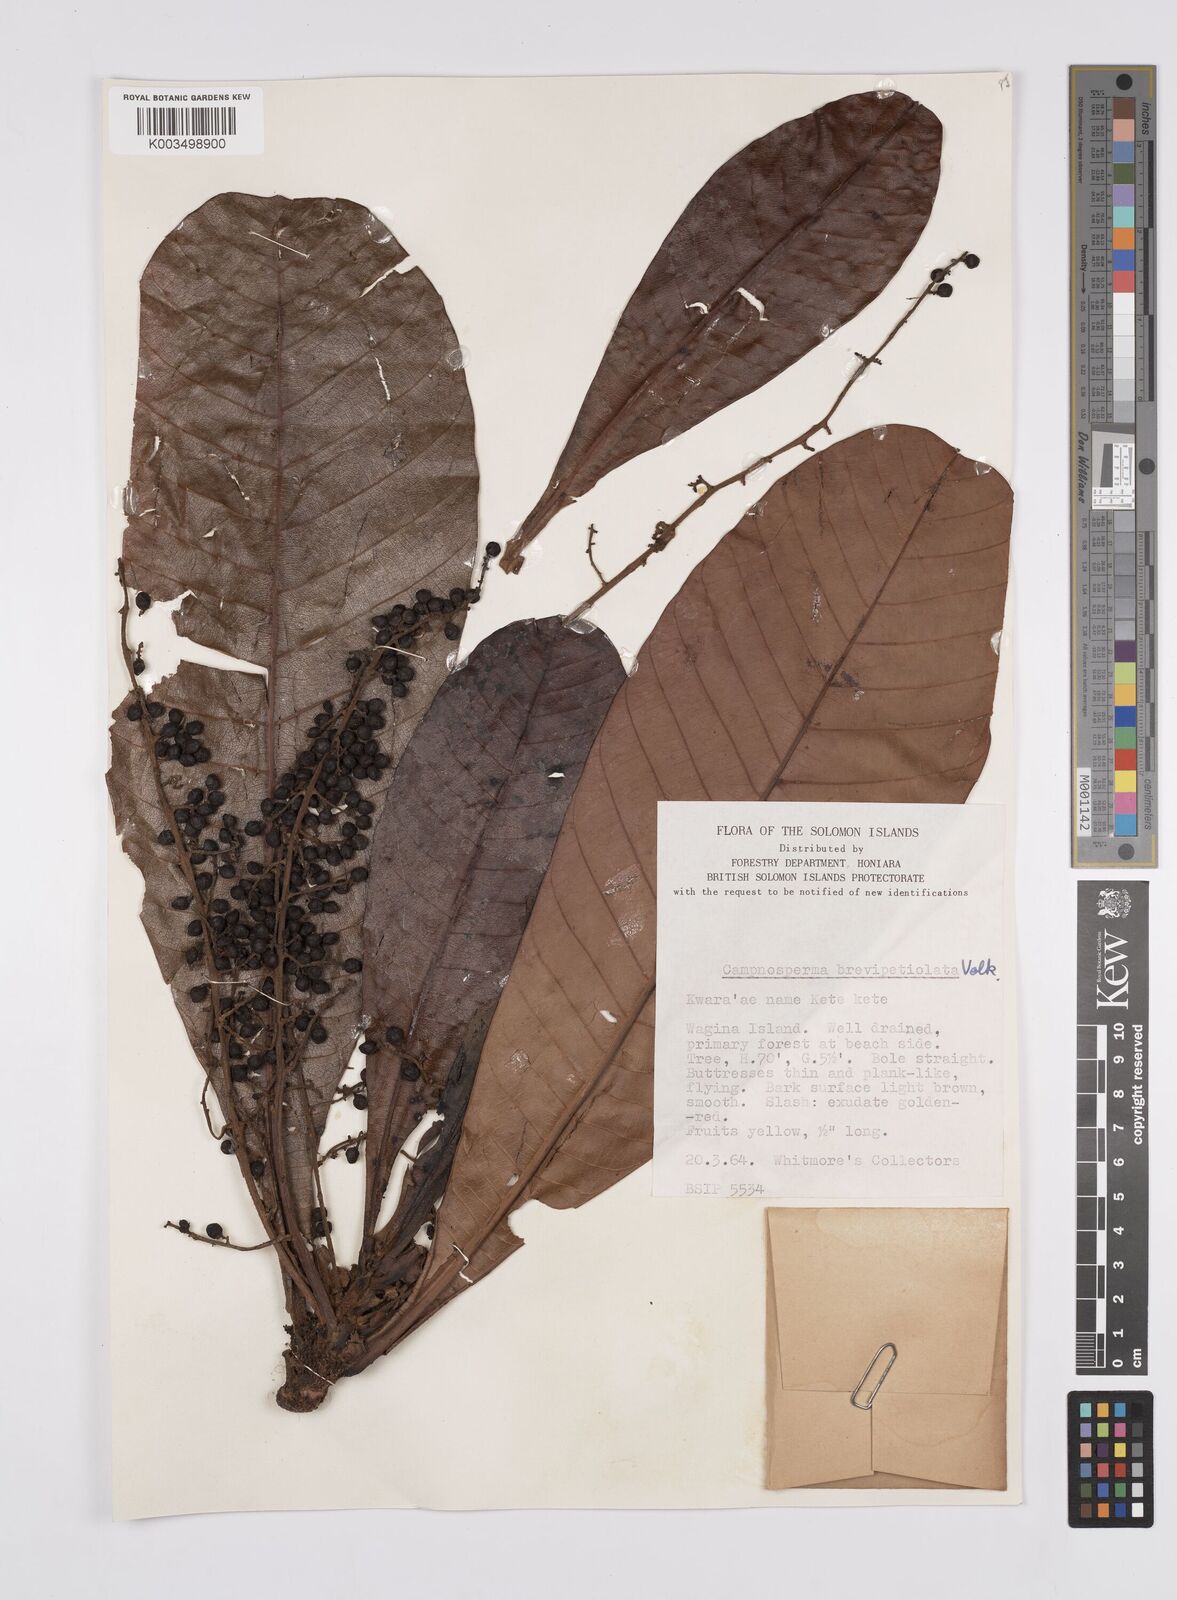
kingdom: Plantae
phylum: Tracheophyta
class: Magnoliopsida
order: Sapindales
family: Anacardiaceae
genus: Campnosperma
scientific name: Campnosperma brevipetiolatum
